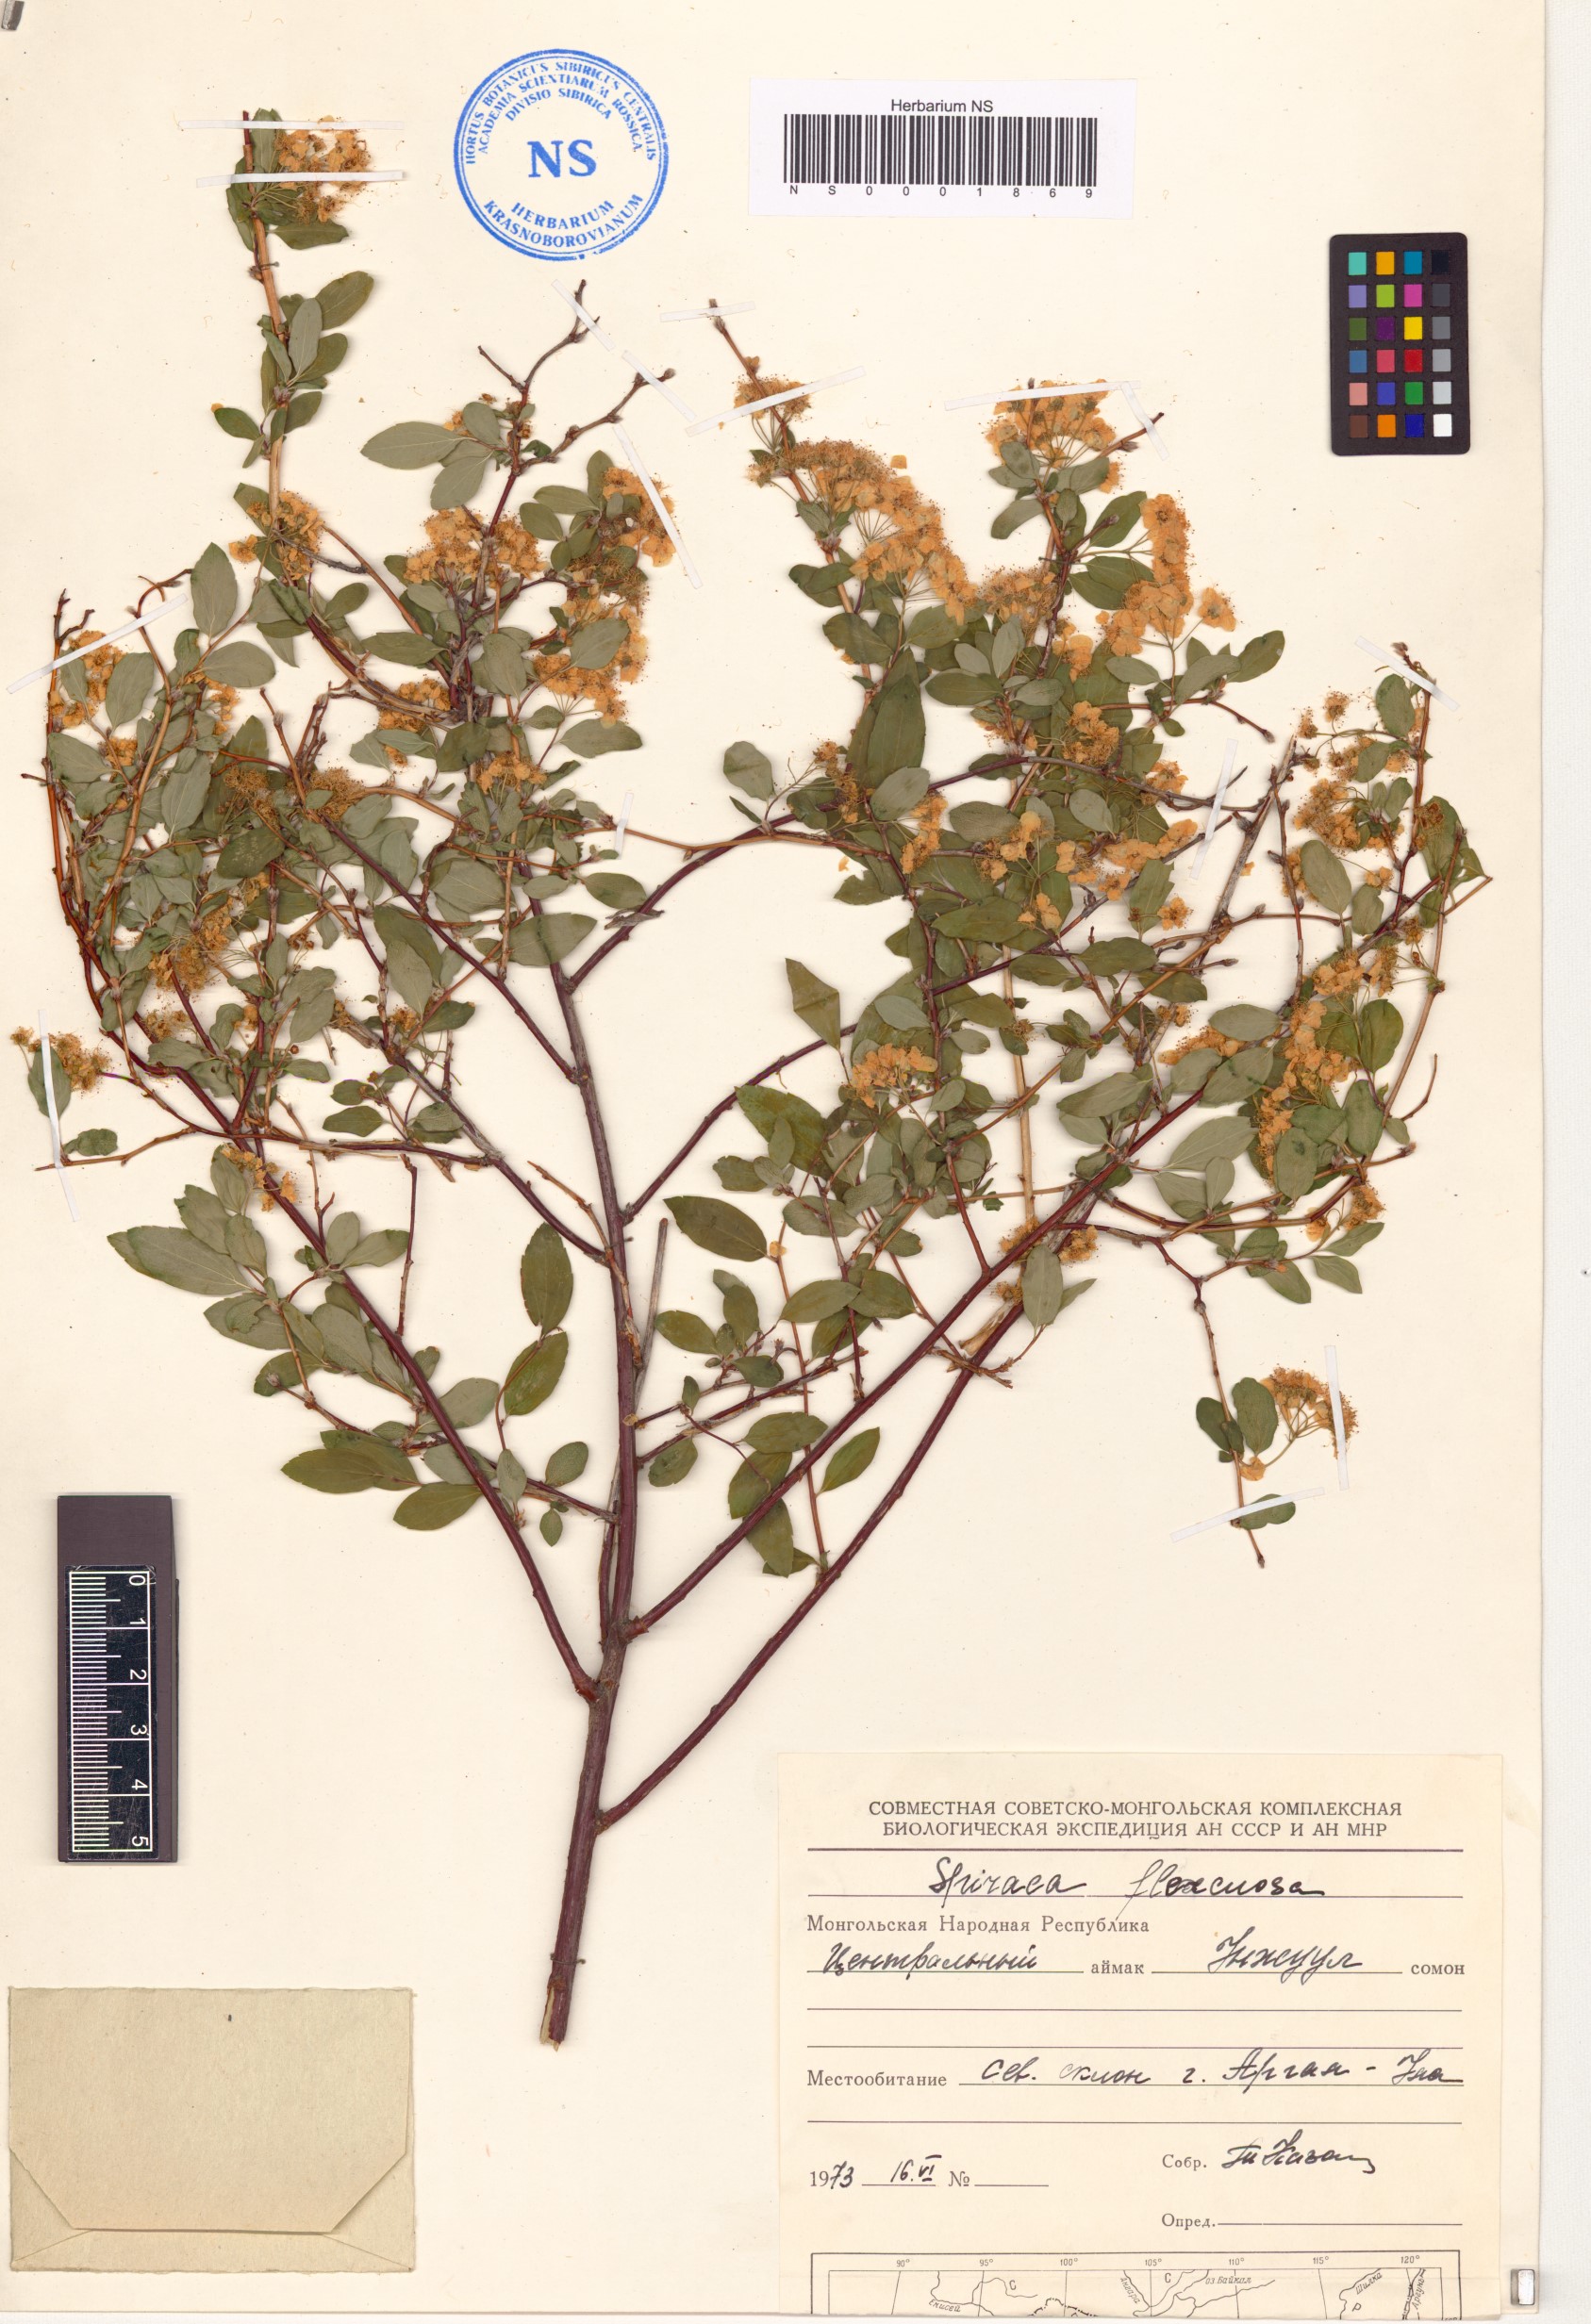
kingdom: Plantae
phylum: Tracheophyta
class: Magnoliopsida
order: Rosales
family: Rosaceae
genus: Spiraea
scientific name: Spiraea flexuosa
